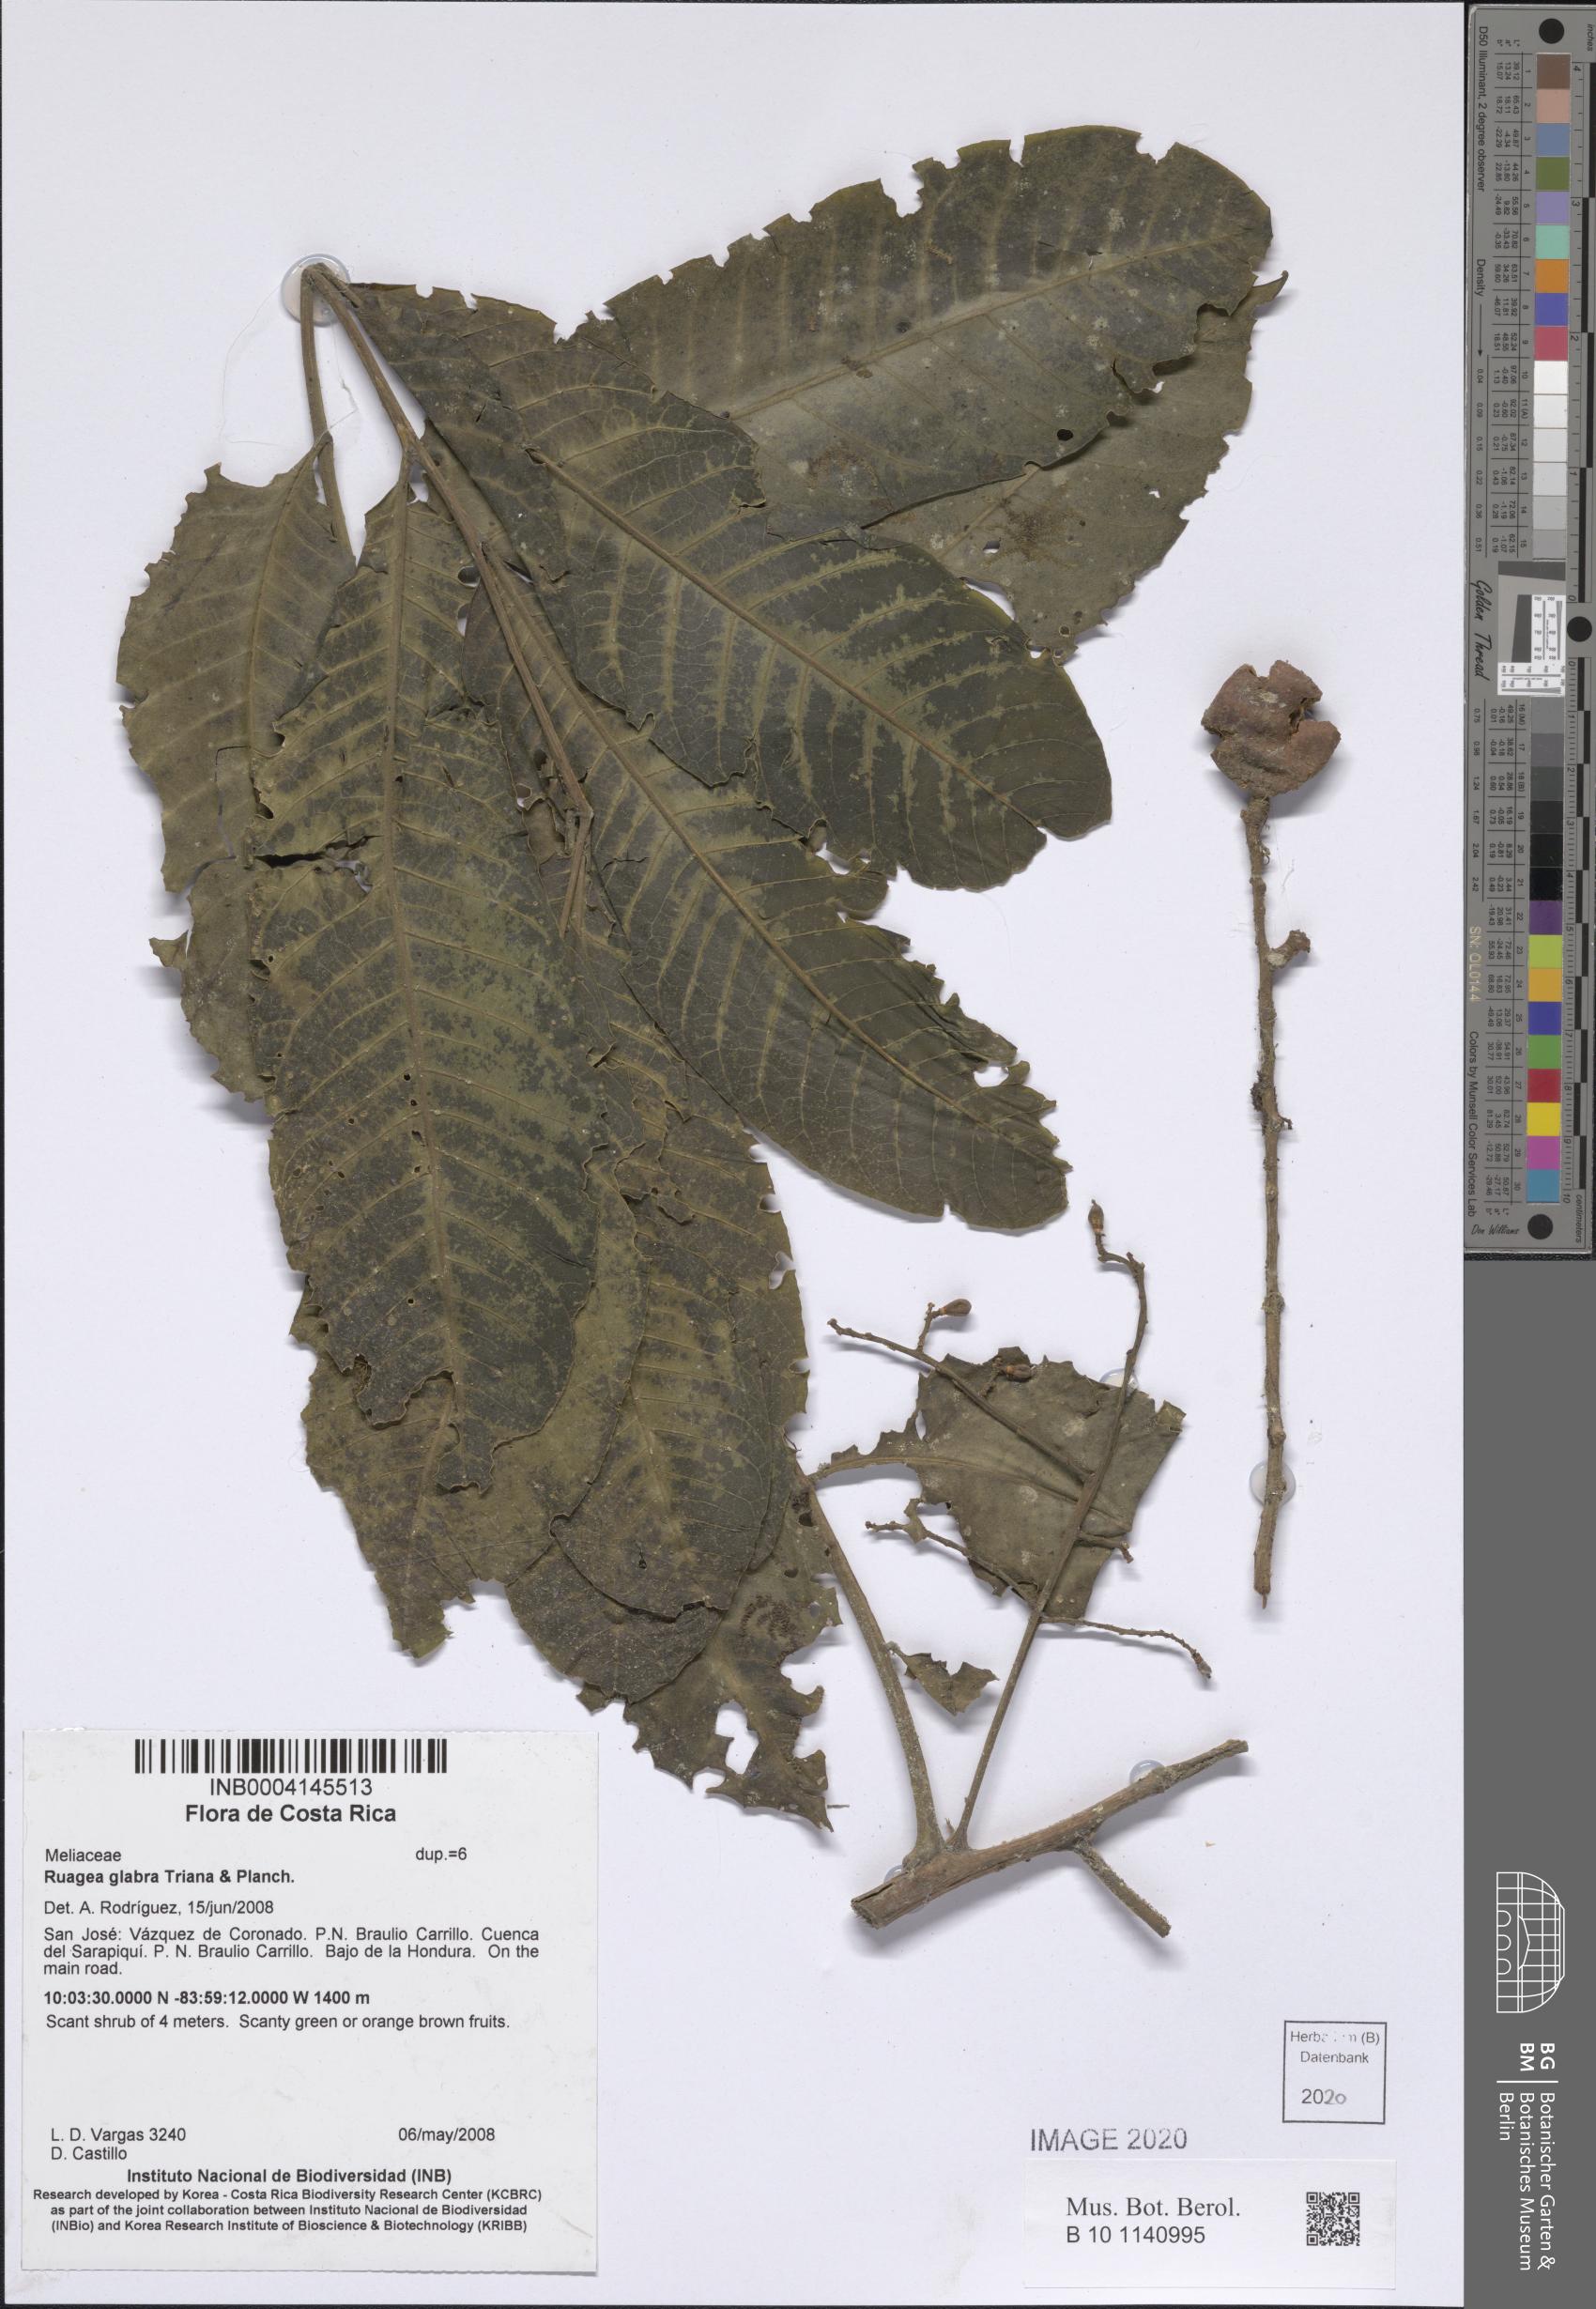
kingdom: Plantae
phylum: Tracheophyta
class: Magnoliopsida
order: Sapindales
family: Meliaceae
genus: Ruagea
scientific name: Ruagea glabra
